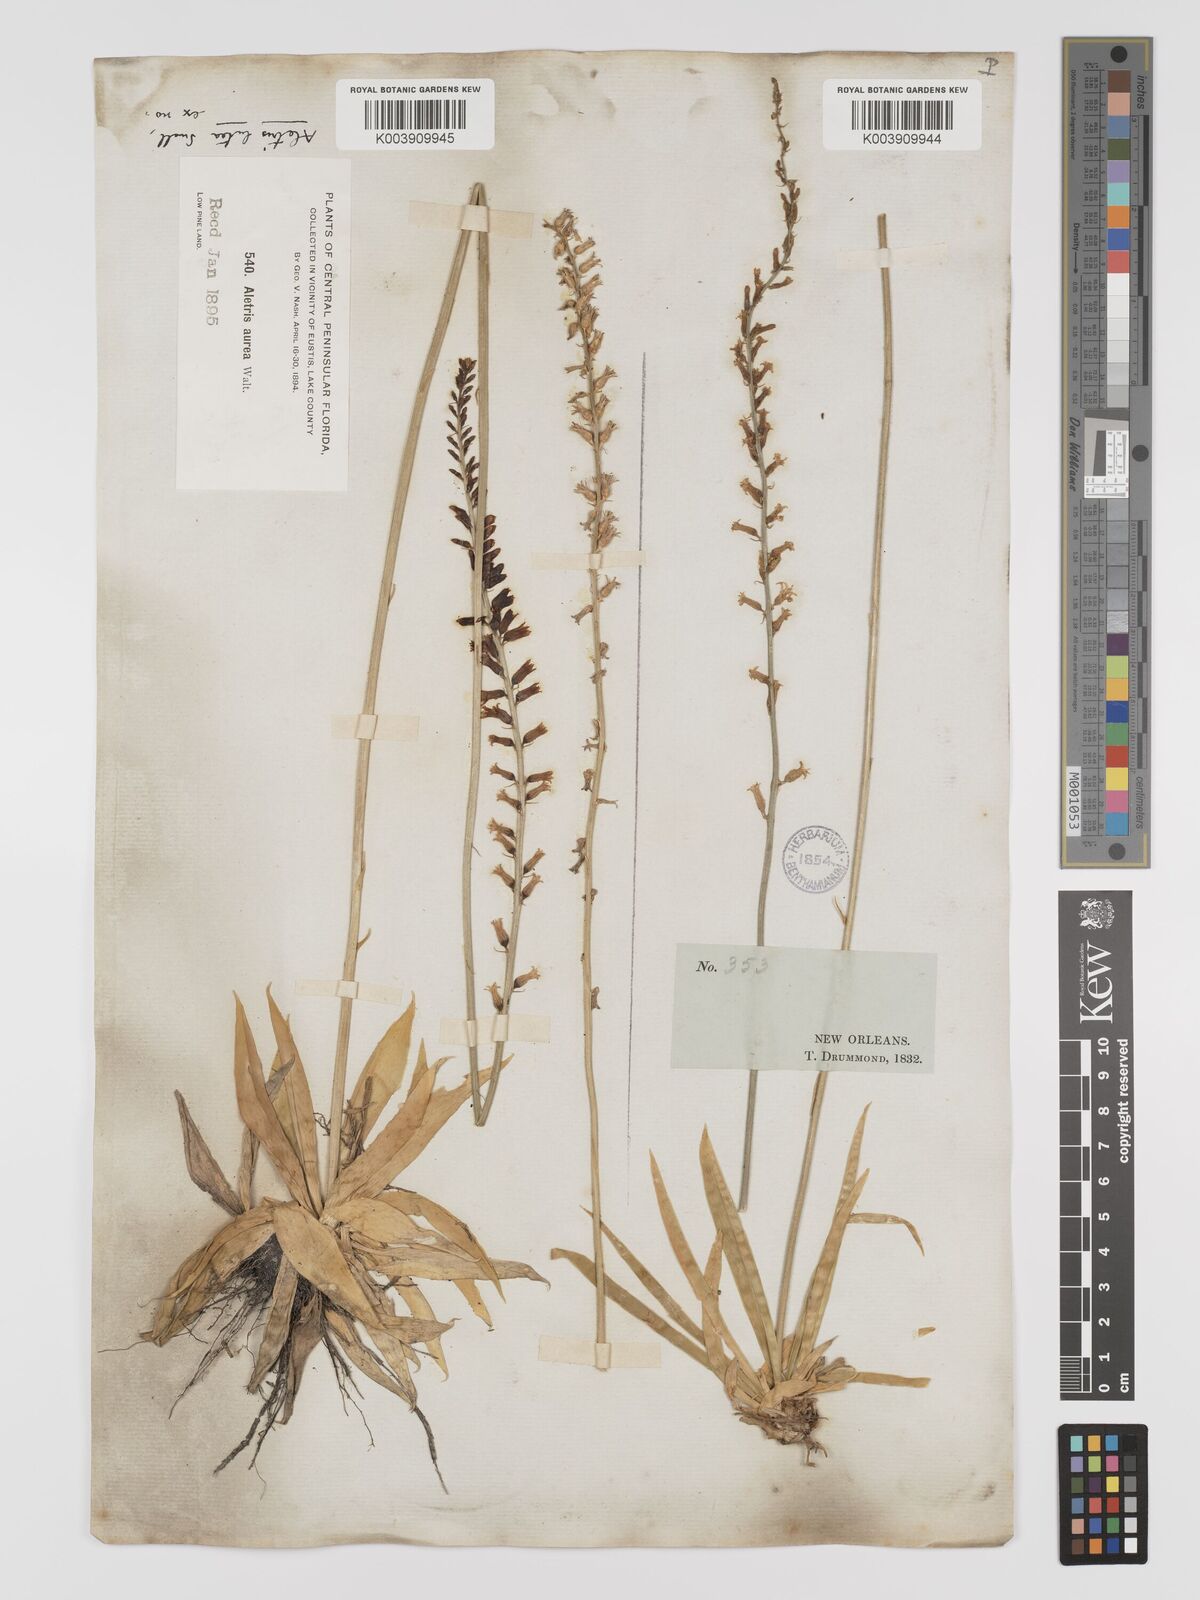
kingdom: Plantae
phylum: Tracheophyta
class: Liliopsida
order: Dioscoreales
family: Nartheciaceae
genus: Aletris
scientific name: Aletris lutea
